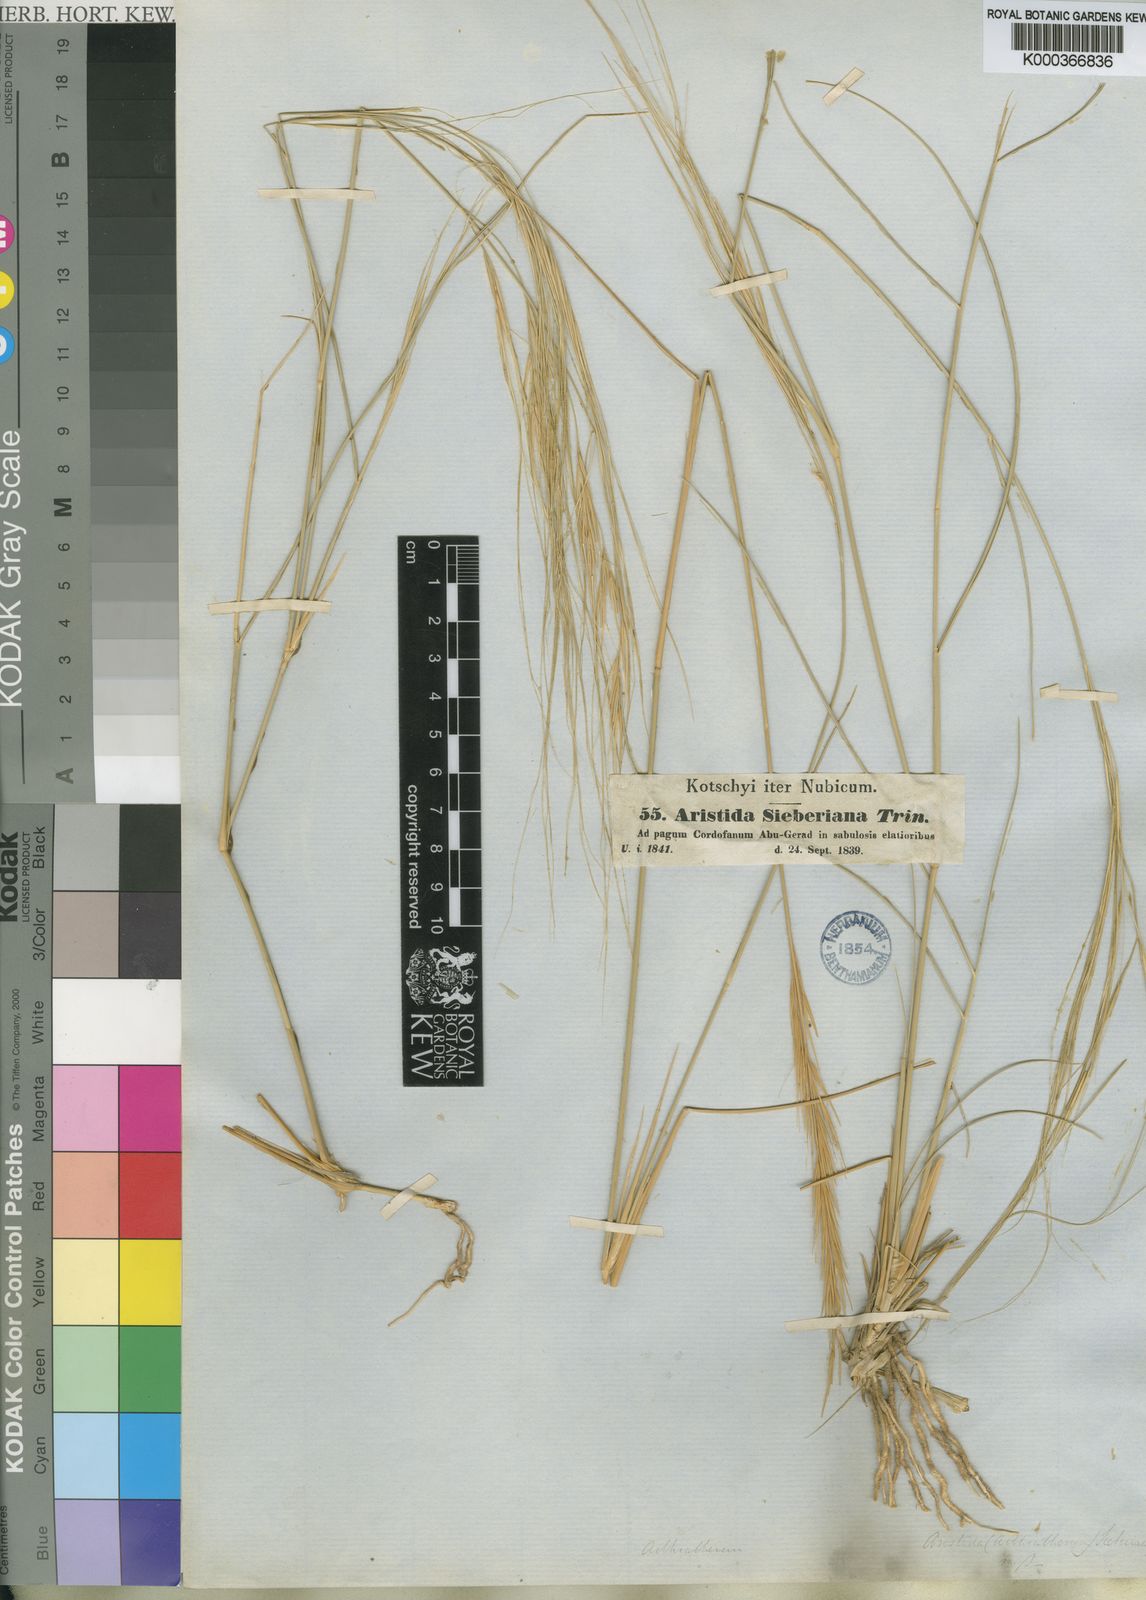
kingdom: Plantae
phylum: Tracheophyta
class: Liliopsida
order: Poales
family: Poaceae
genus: Aristida
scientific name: Aristida sieberiana
